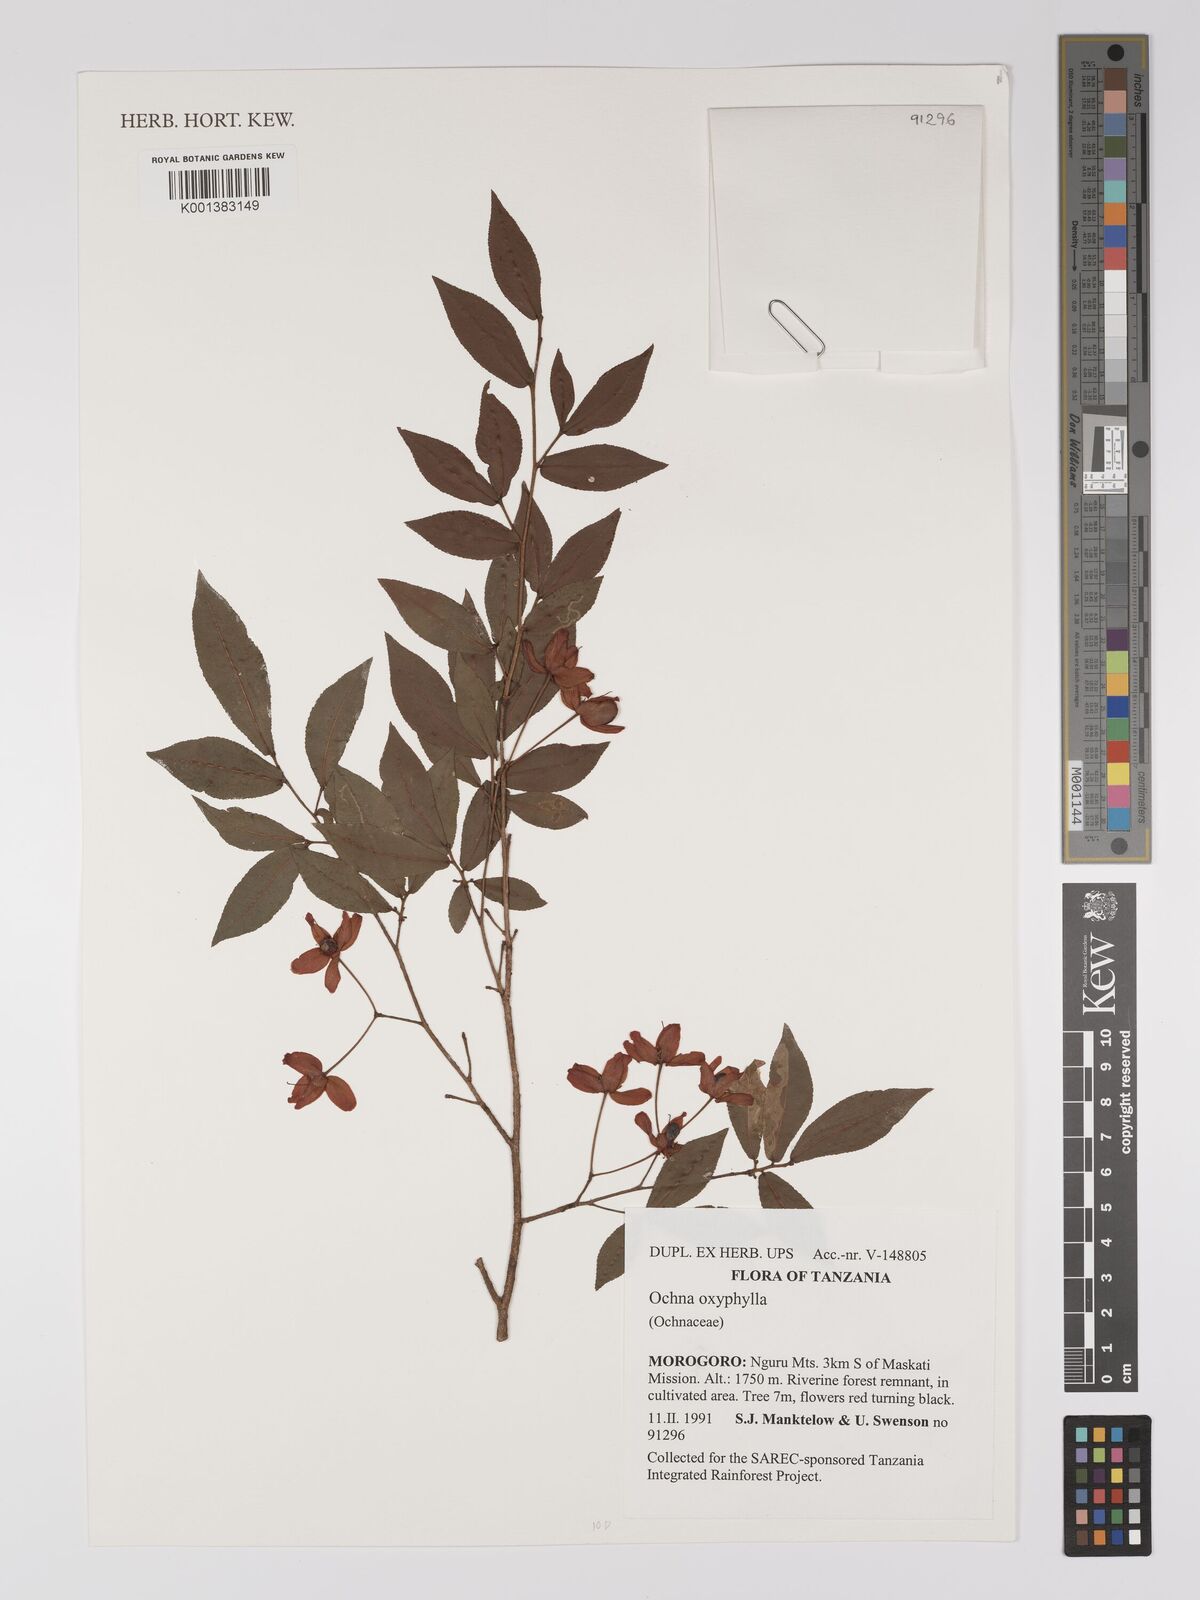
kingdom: Plantae
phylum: Tracheophyta
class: Magnoliopsida
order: Malpighiales
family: Ochnaceae
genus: Ochna
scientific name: Ochna oxyphylla
